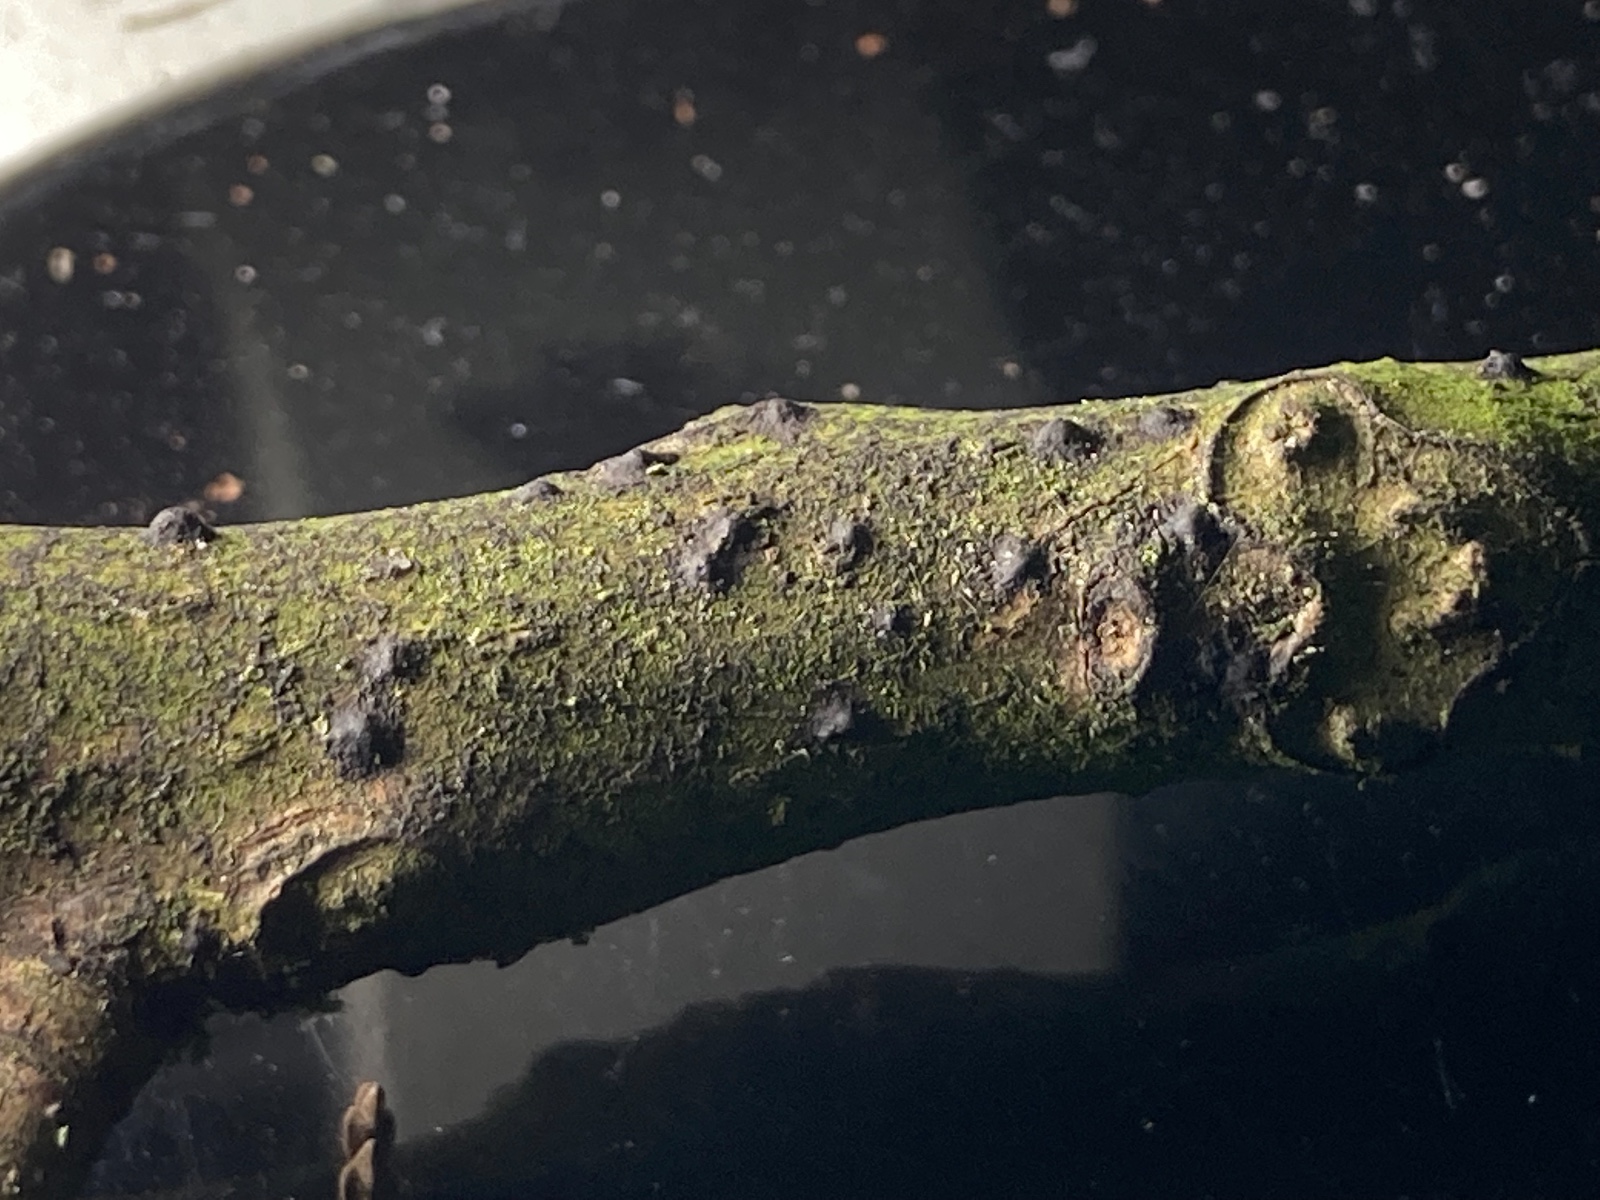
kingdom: Fungi
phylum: Ascomycota
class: Sordariomycetes
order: Diaporthales
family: Juglanconidaceae
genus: Juglanconis
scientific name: Juglanconis appendiculata
